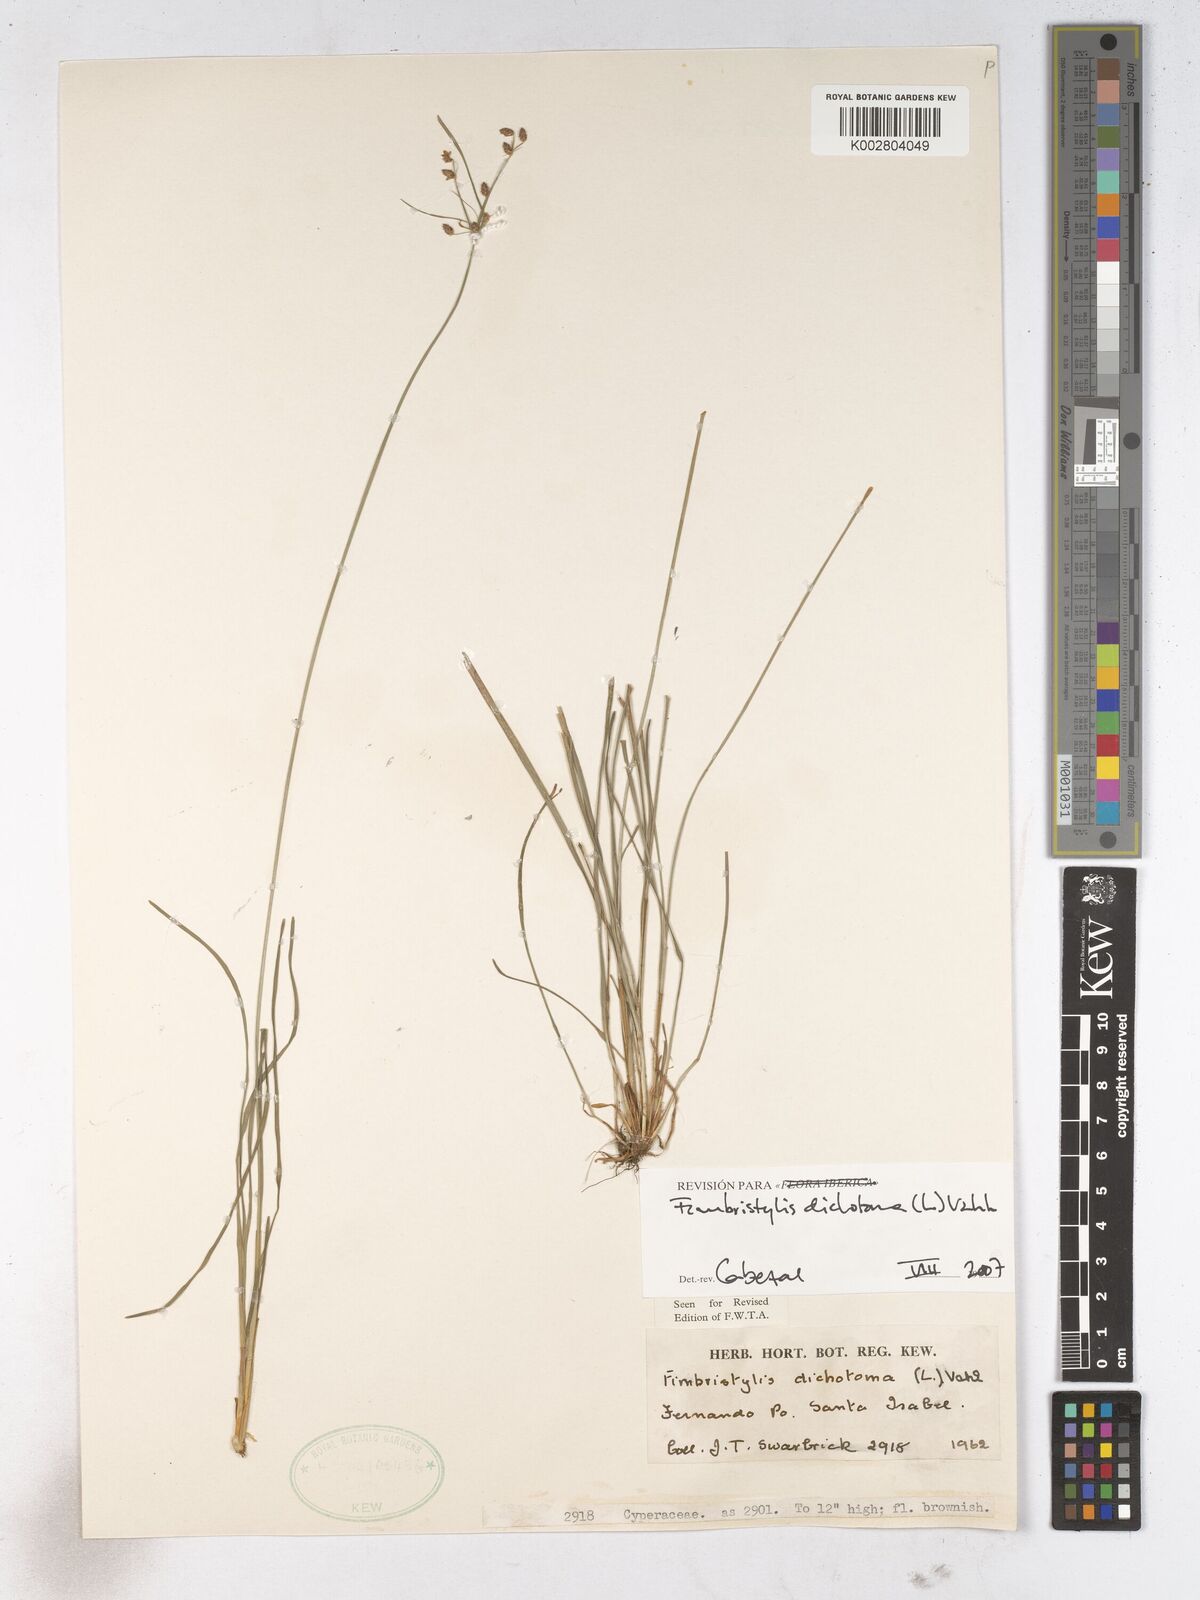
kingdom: Plantae
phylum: Tracheophyta
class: Liliopsida
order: Poales
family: Cyperaceae
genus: Fimbristylis
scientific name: Fimbristylis dichotoma
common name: Forked fimbry
